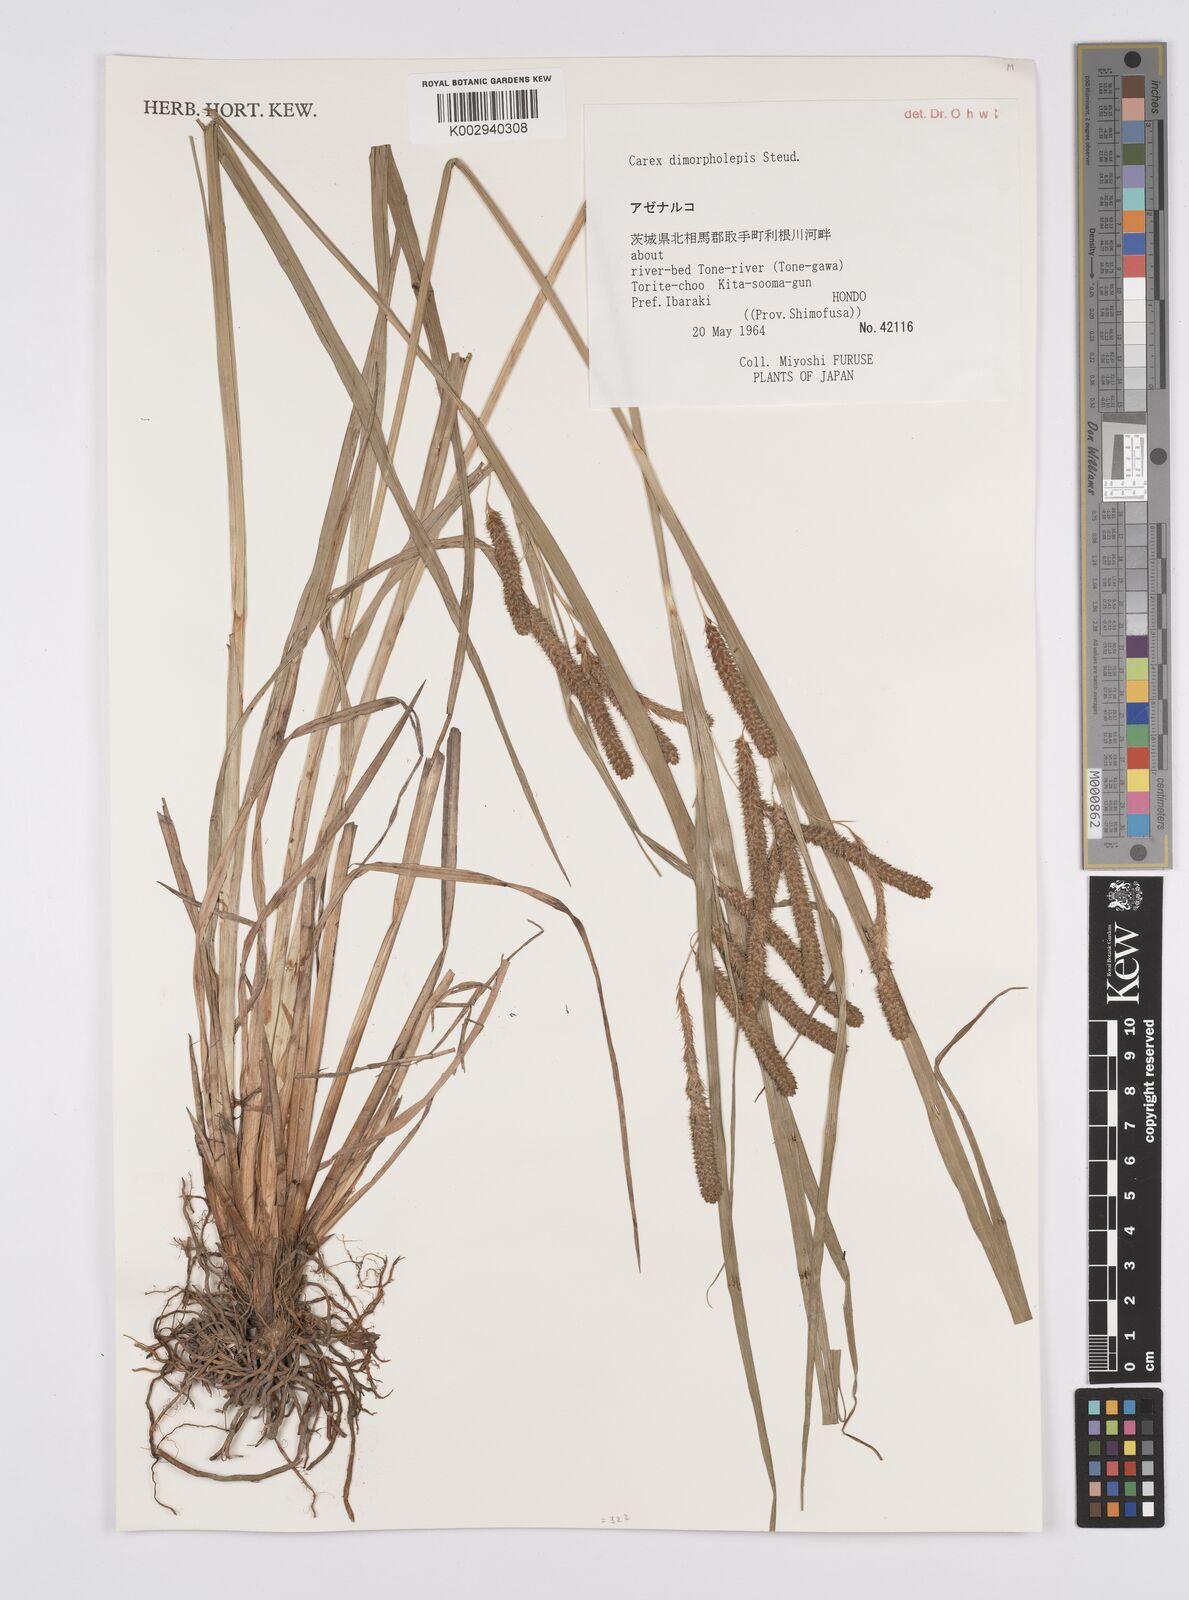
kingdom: Plantae
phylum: Tracheophyta
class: Liliopsida
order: Poales
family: Cyperaceae
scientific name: Cyperaceae
